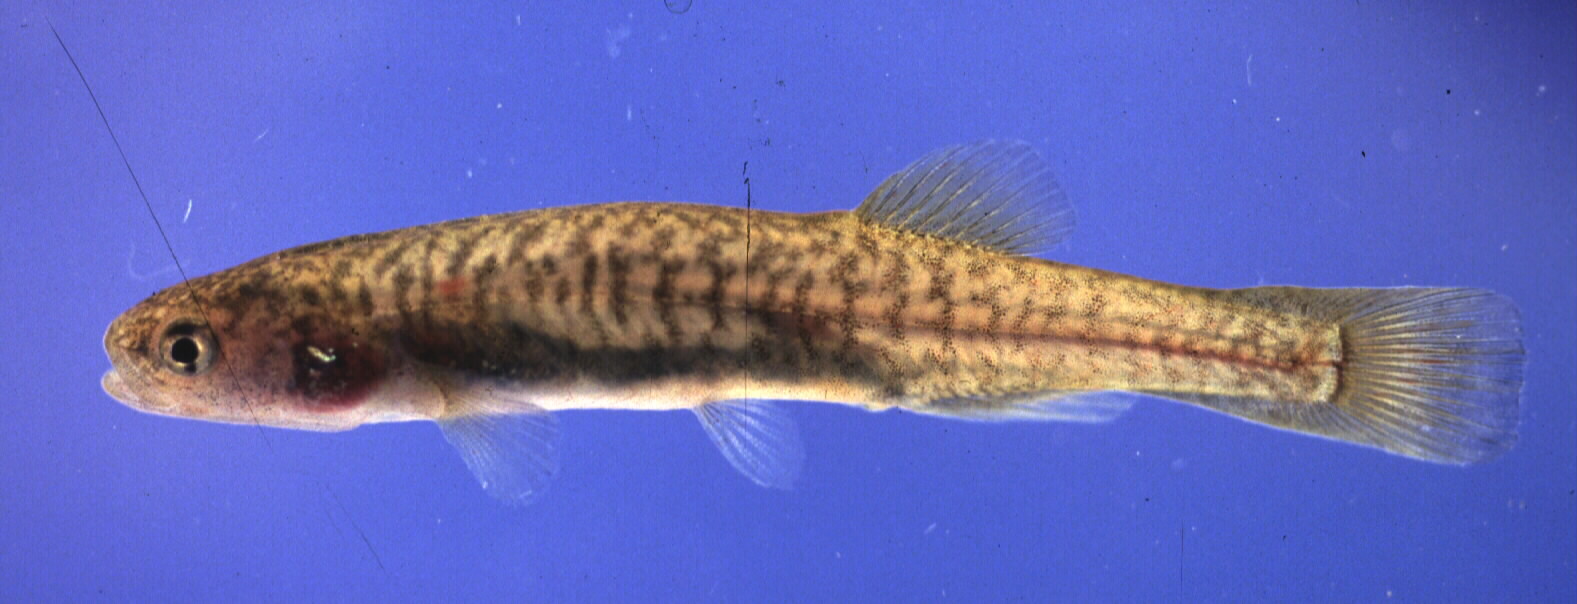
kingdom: Animalia
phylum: Chordata
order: Osmeriformes
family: Galaxiidae
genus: Galaxias
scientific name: Galaxias zebratus
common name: Cape galaxias
